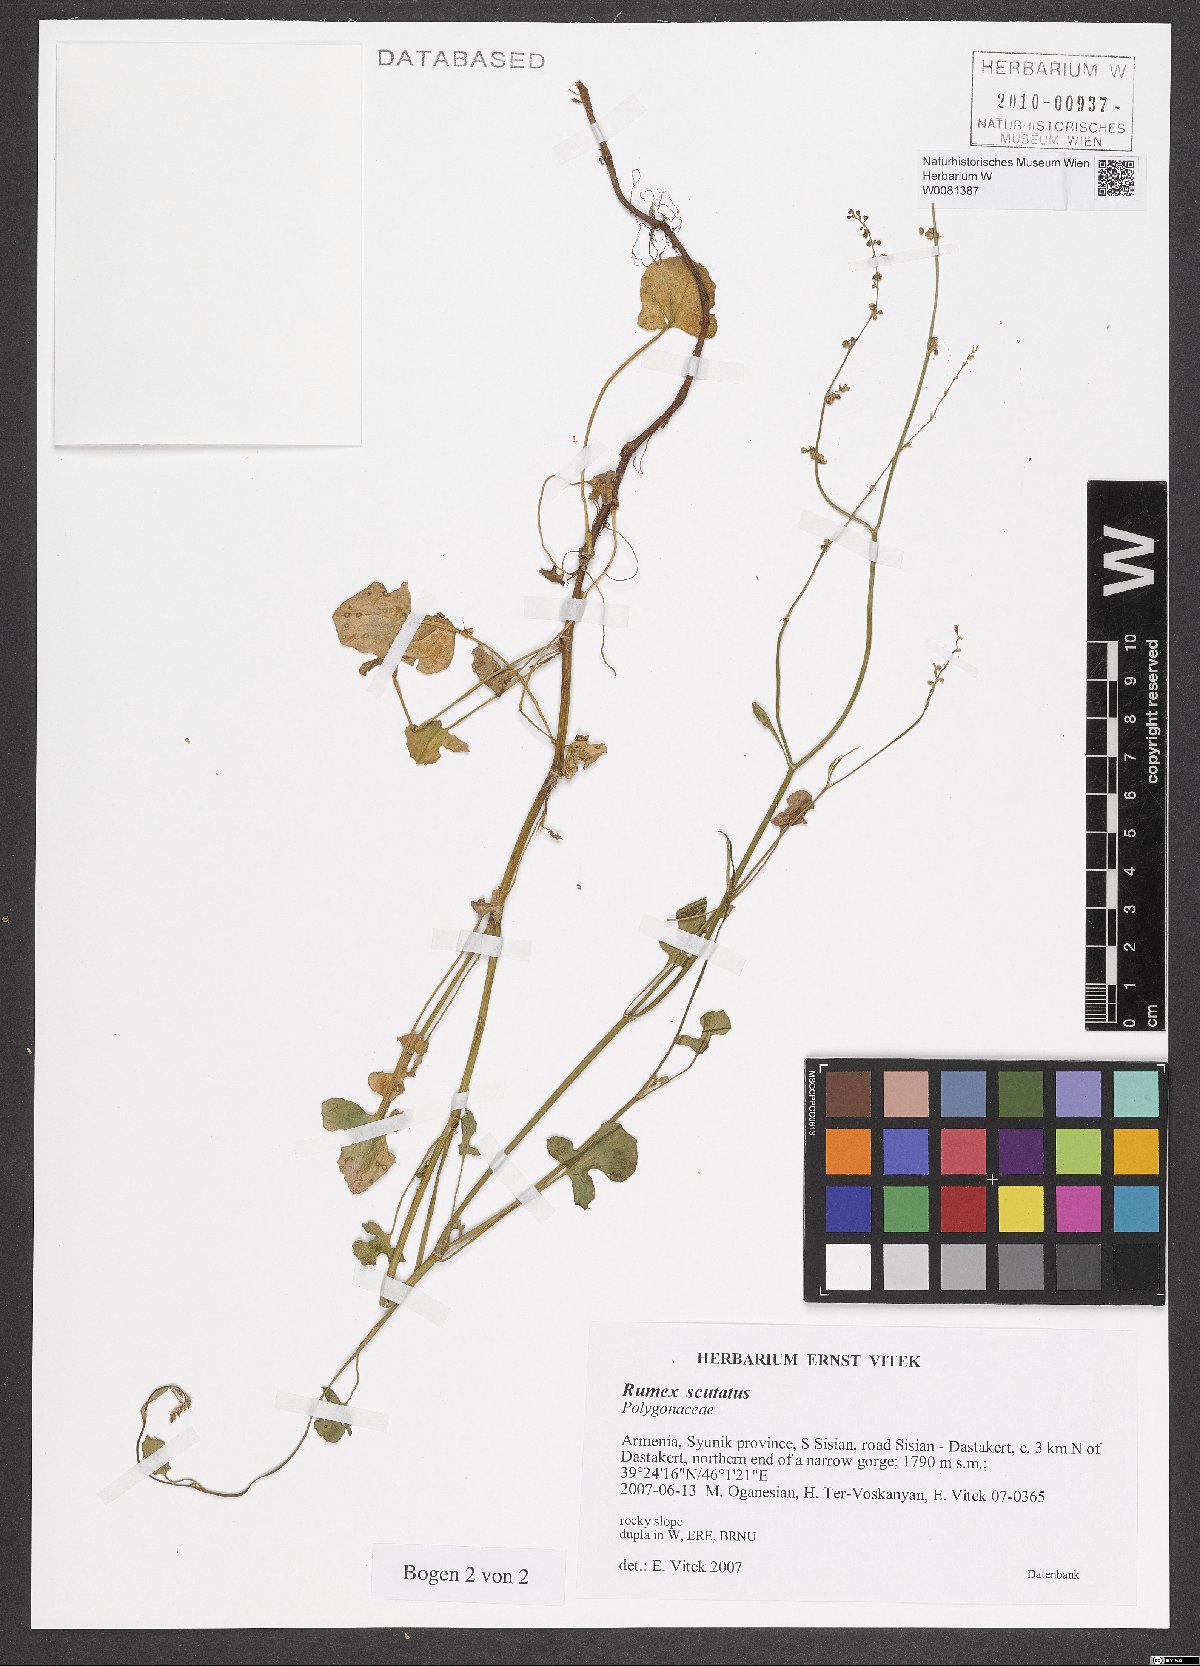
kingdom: Plantae
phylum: Tracheophyta
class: Magnoliopsida
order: Caryophyllales
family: Polygonaceae
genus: Rumex
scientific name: Rumex scutatus
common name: French sorrel
